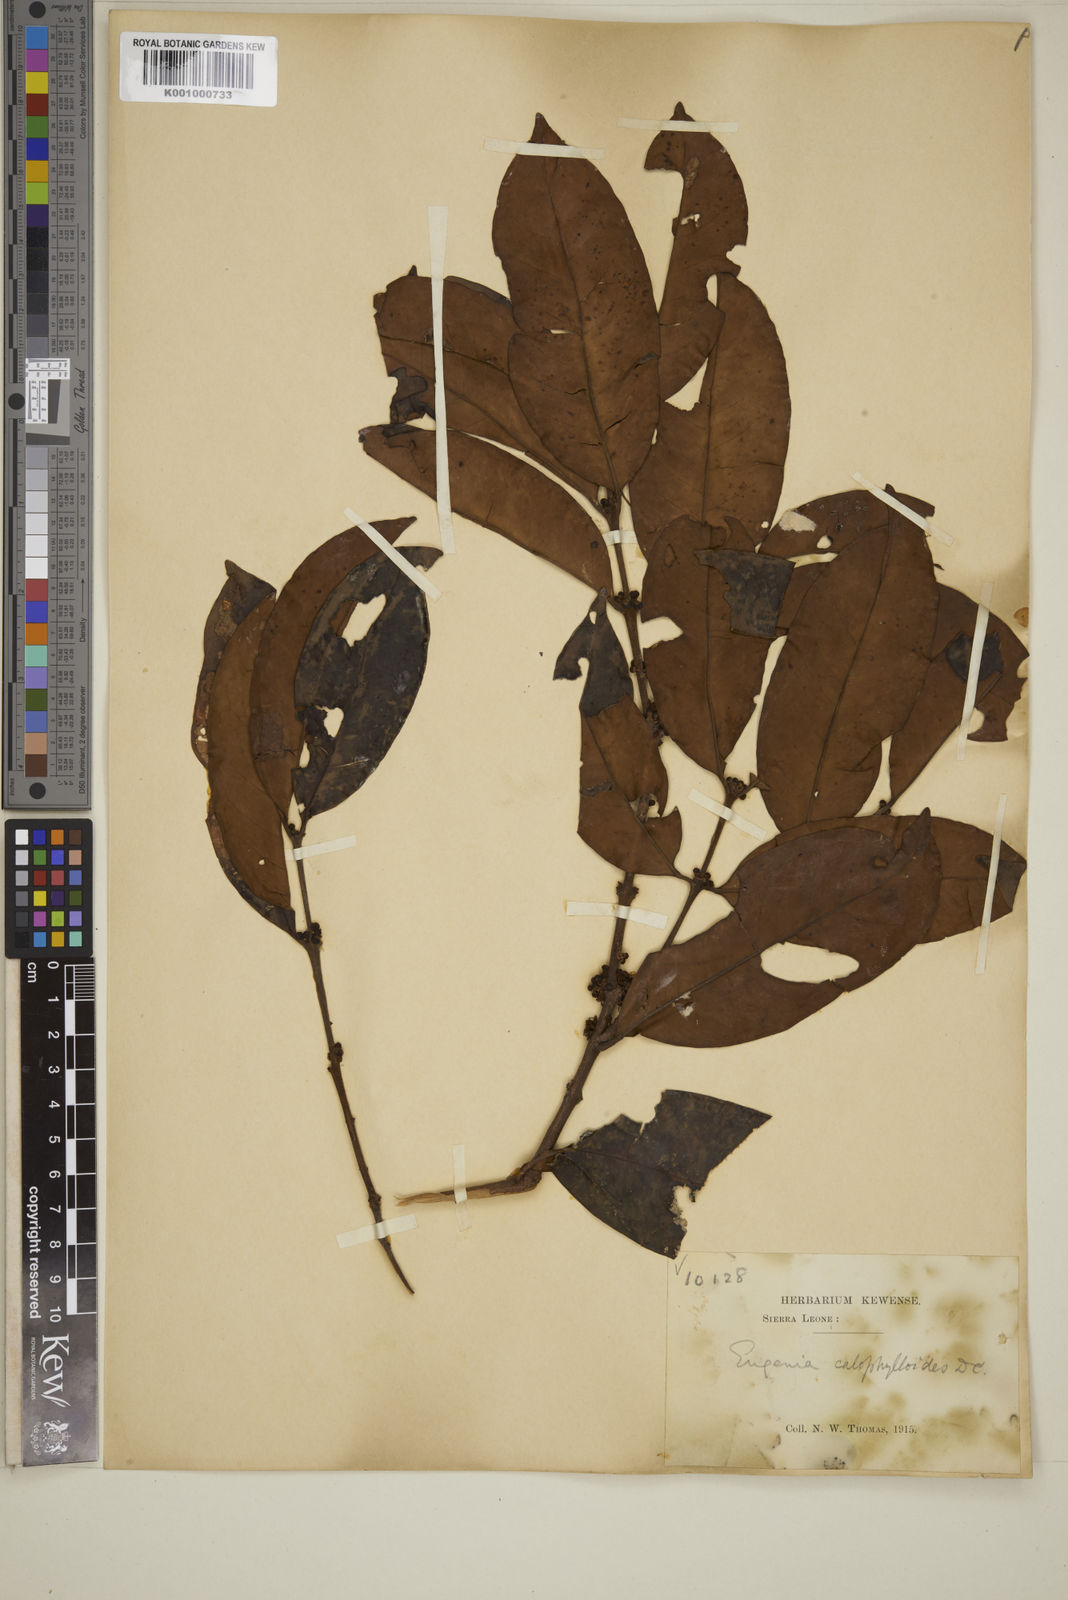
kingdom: Plantae
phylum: Tracheophyta
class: Magnoliopsida
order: Myrtales
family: Myrtaceae
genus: Eugenia
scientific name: Eugenia calophylloides
